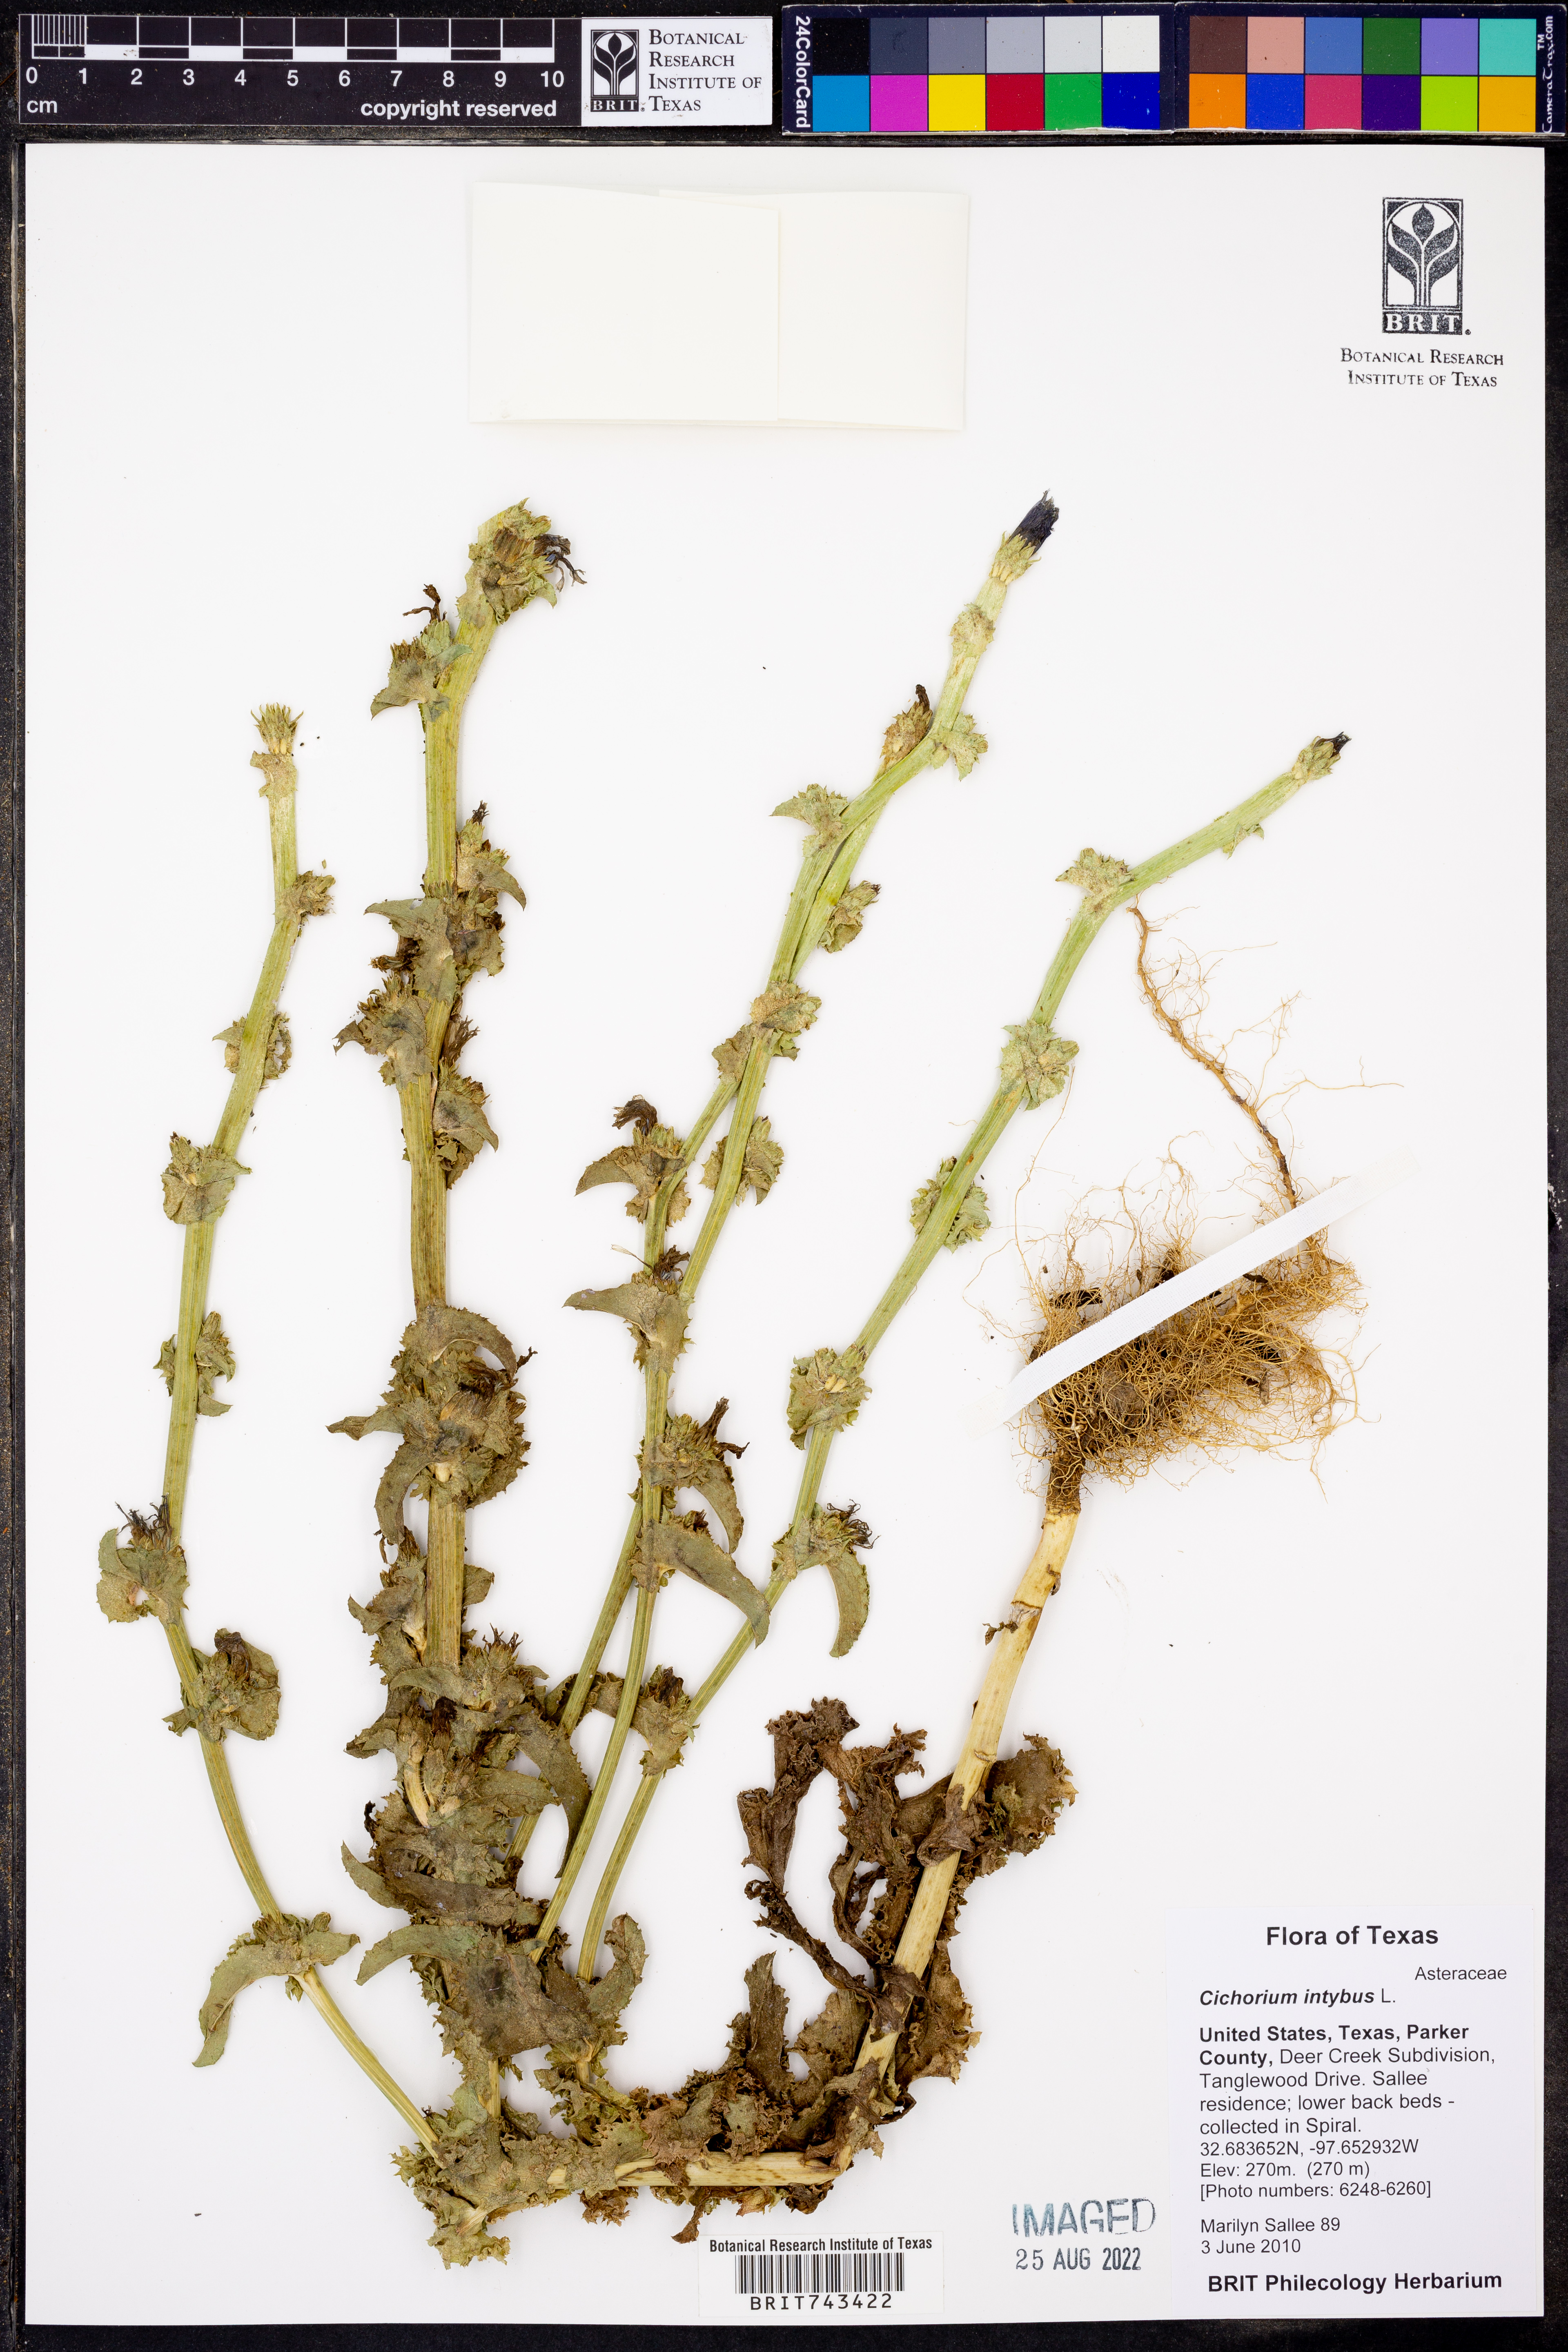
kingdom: Plantae
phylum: Tracheophyta
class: Magnoliopsida
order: Asterales
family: Asteraceae
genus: Cichorium
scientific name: Cichorium intybus
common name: Chicory
